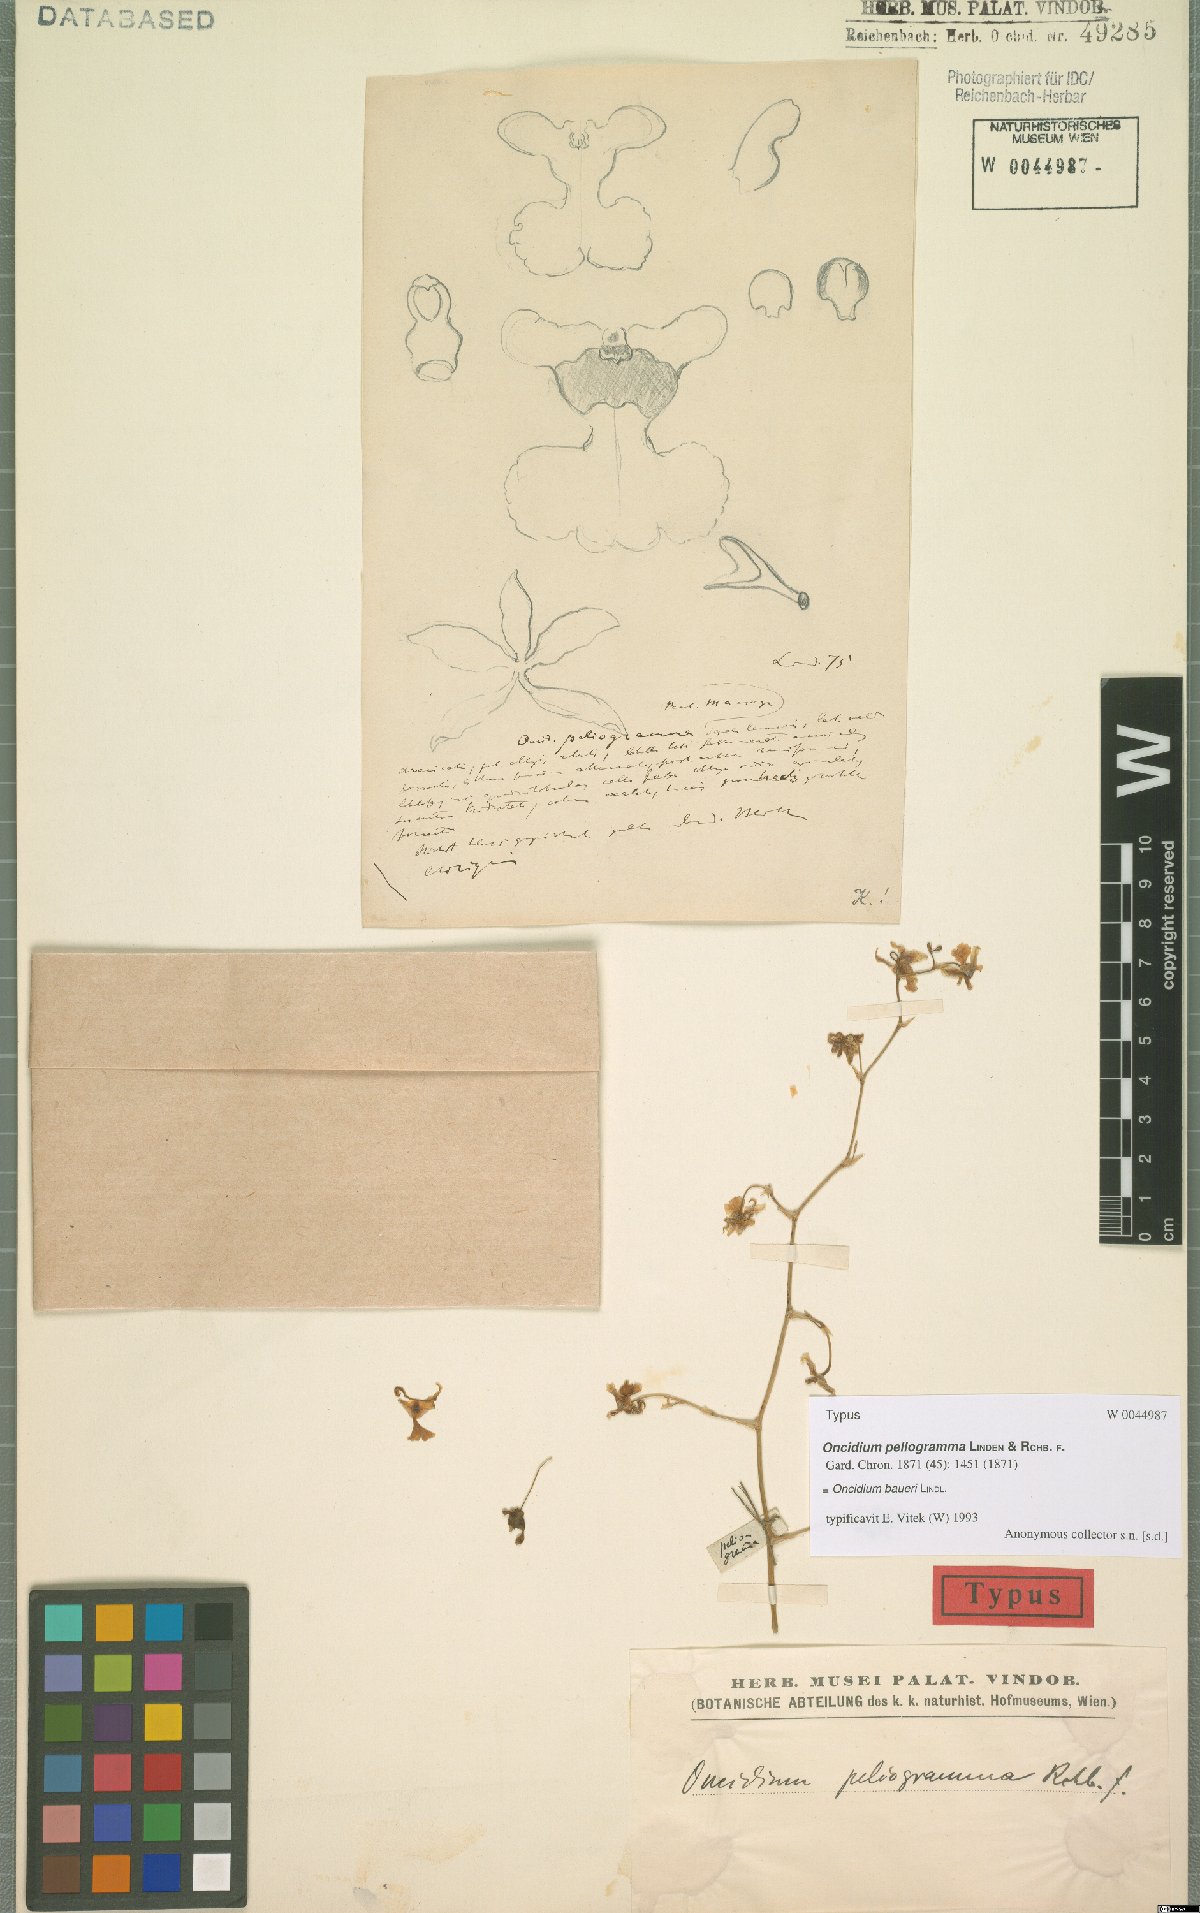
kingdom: Plantae
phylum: Tracheophyta
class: Liliopsida
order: Asparagales
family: Orchidaceae
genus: Oncidium
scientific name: Oncidium baueri
